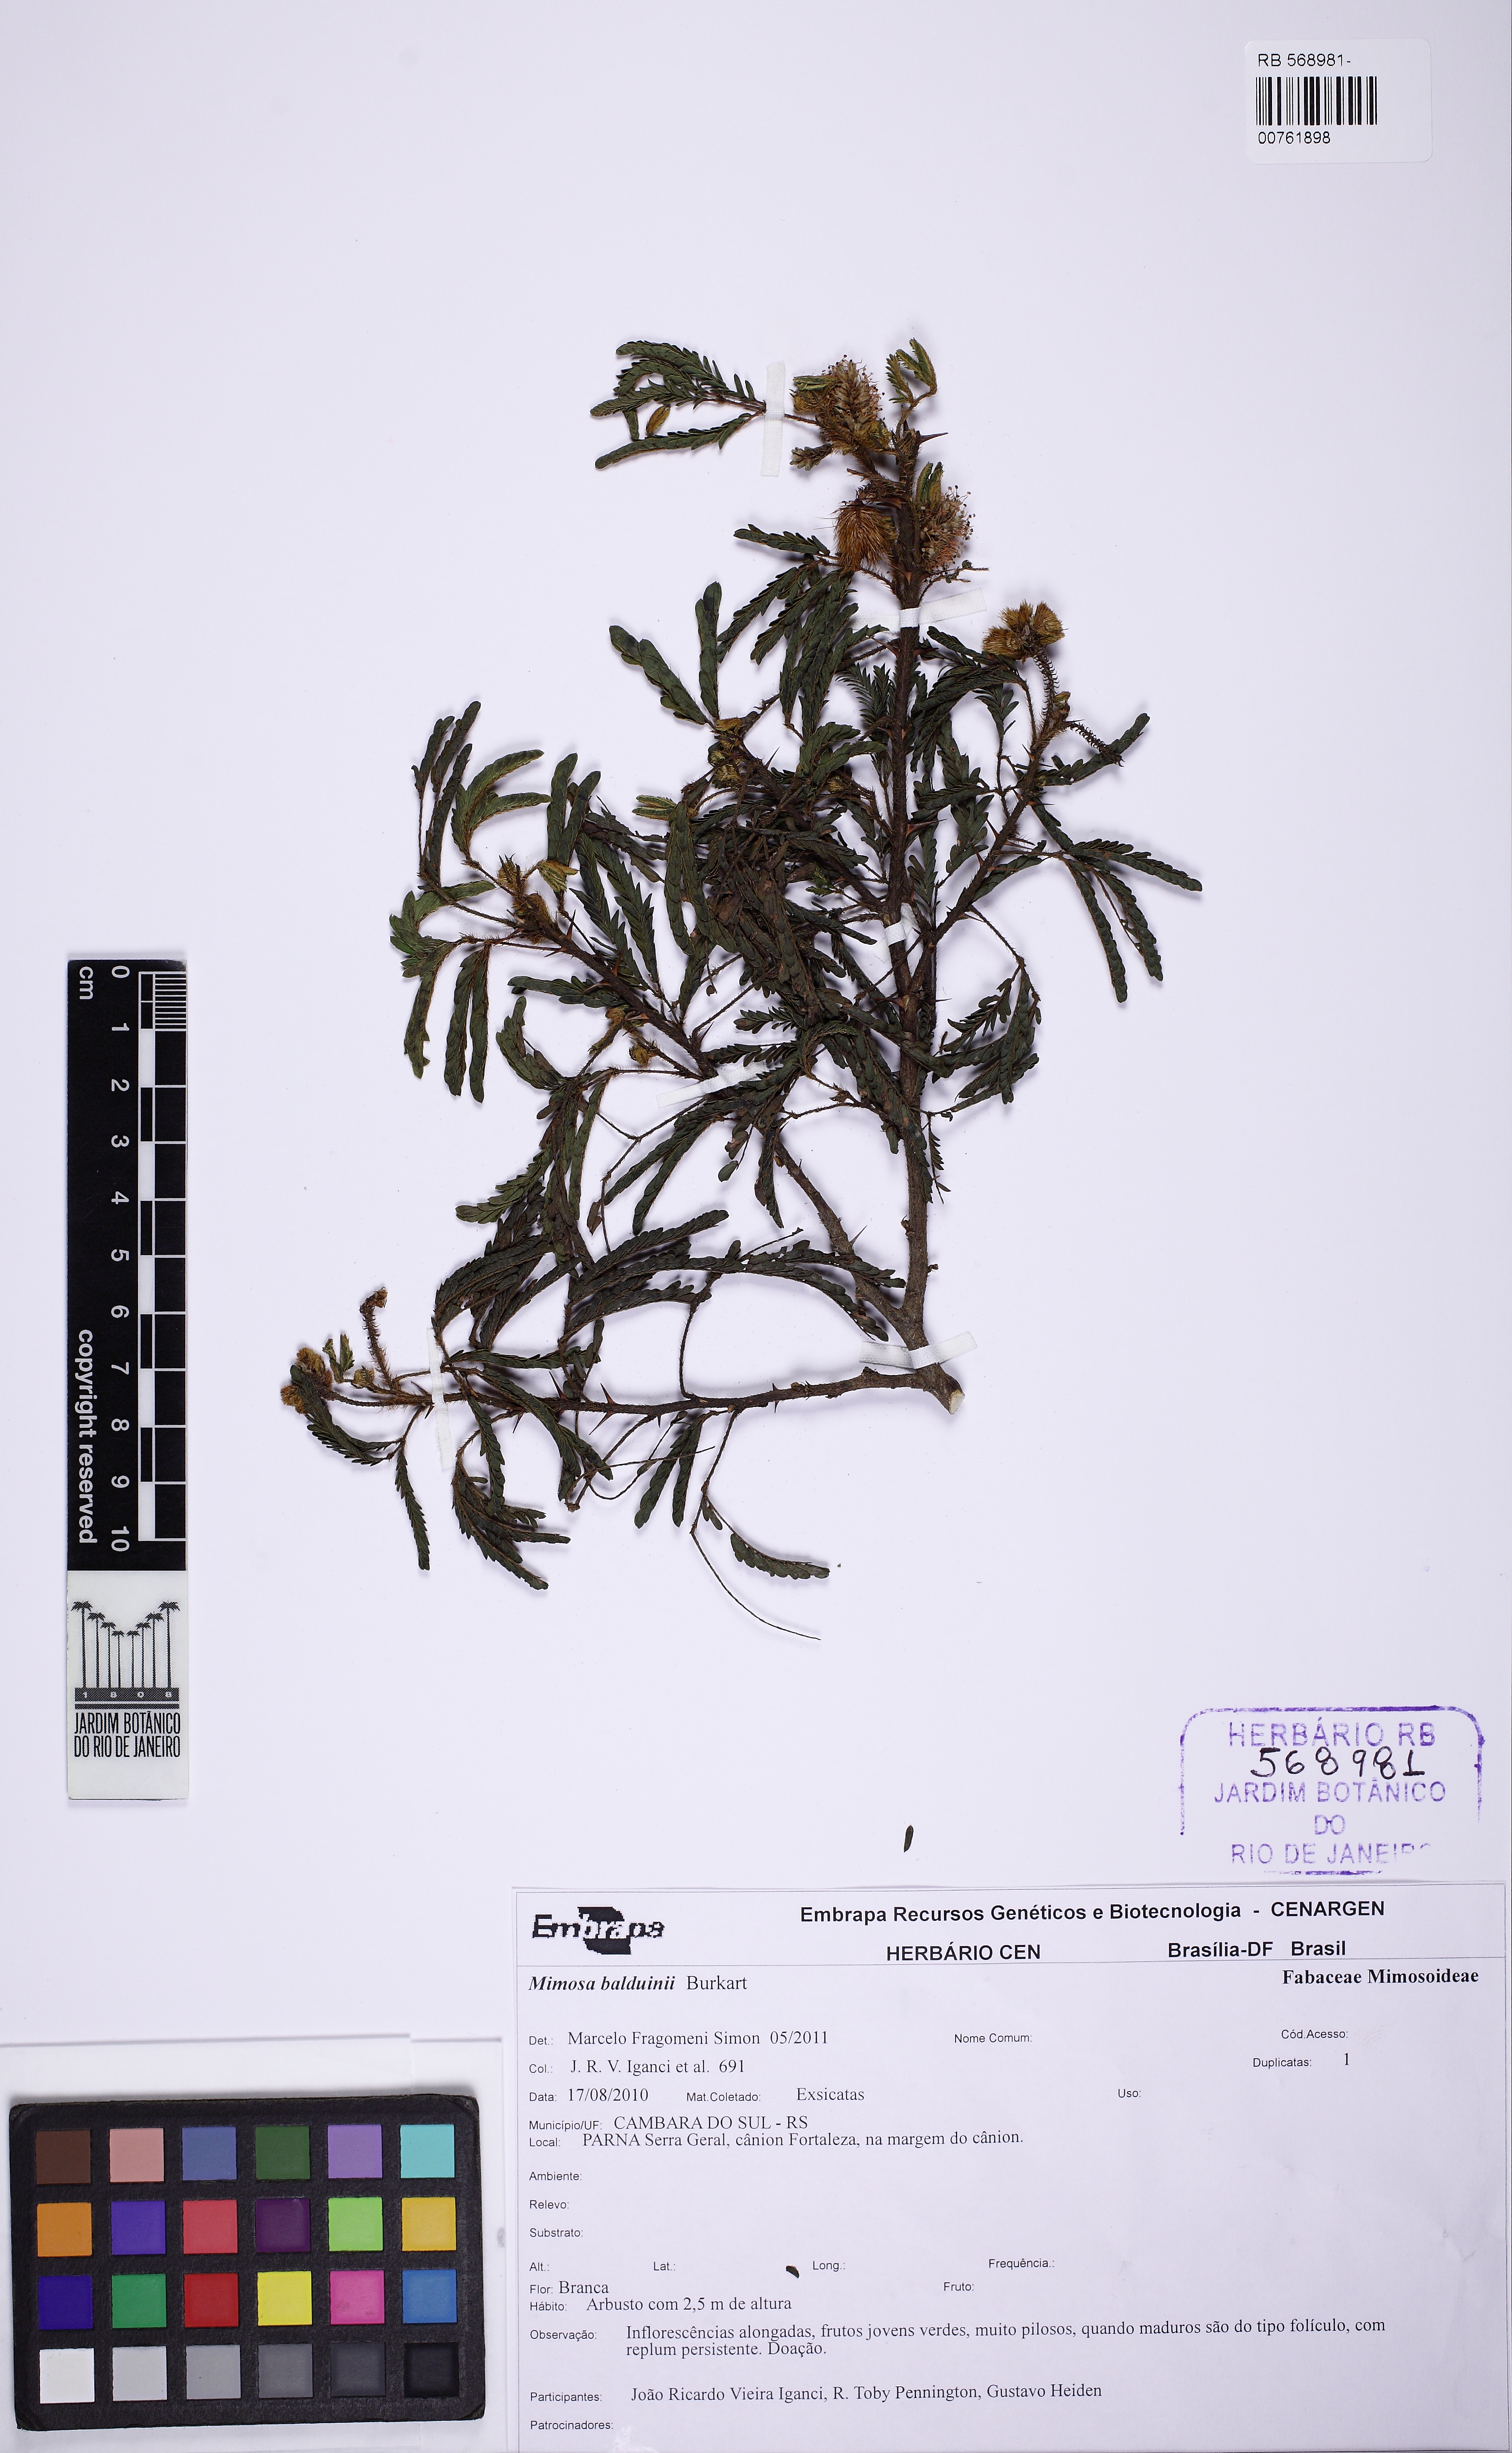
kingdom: Plantae
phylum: Tracheophyta
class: Magnoliopsida
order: Fabales
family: Fabaceae
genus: Mimosa
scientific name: Mimosa balduinii
